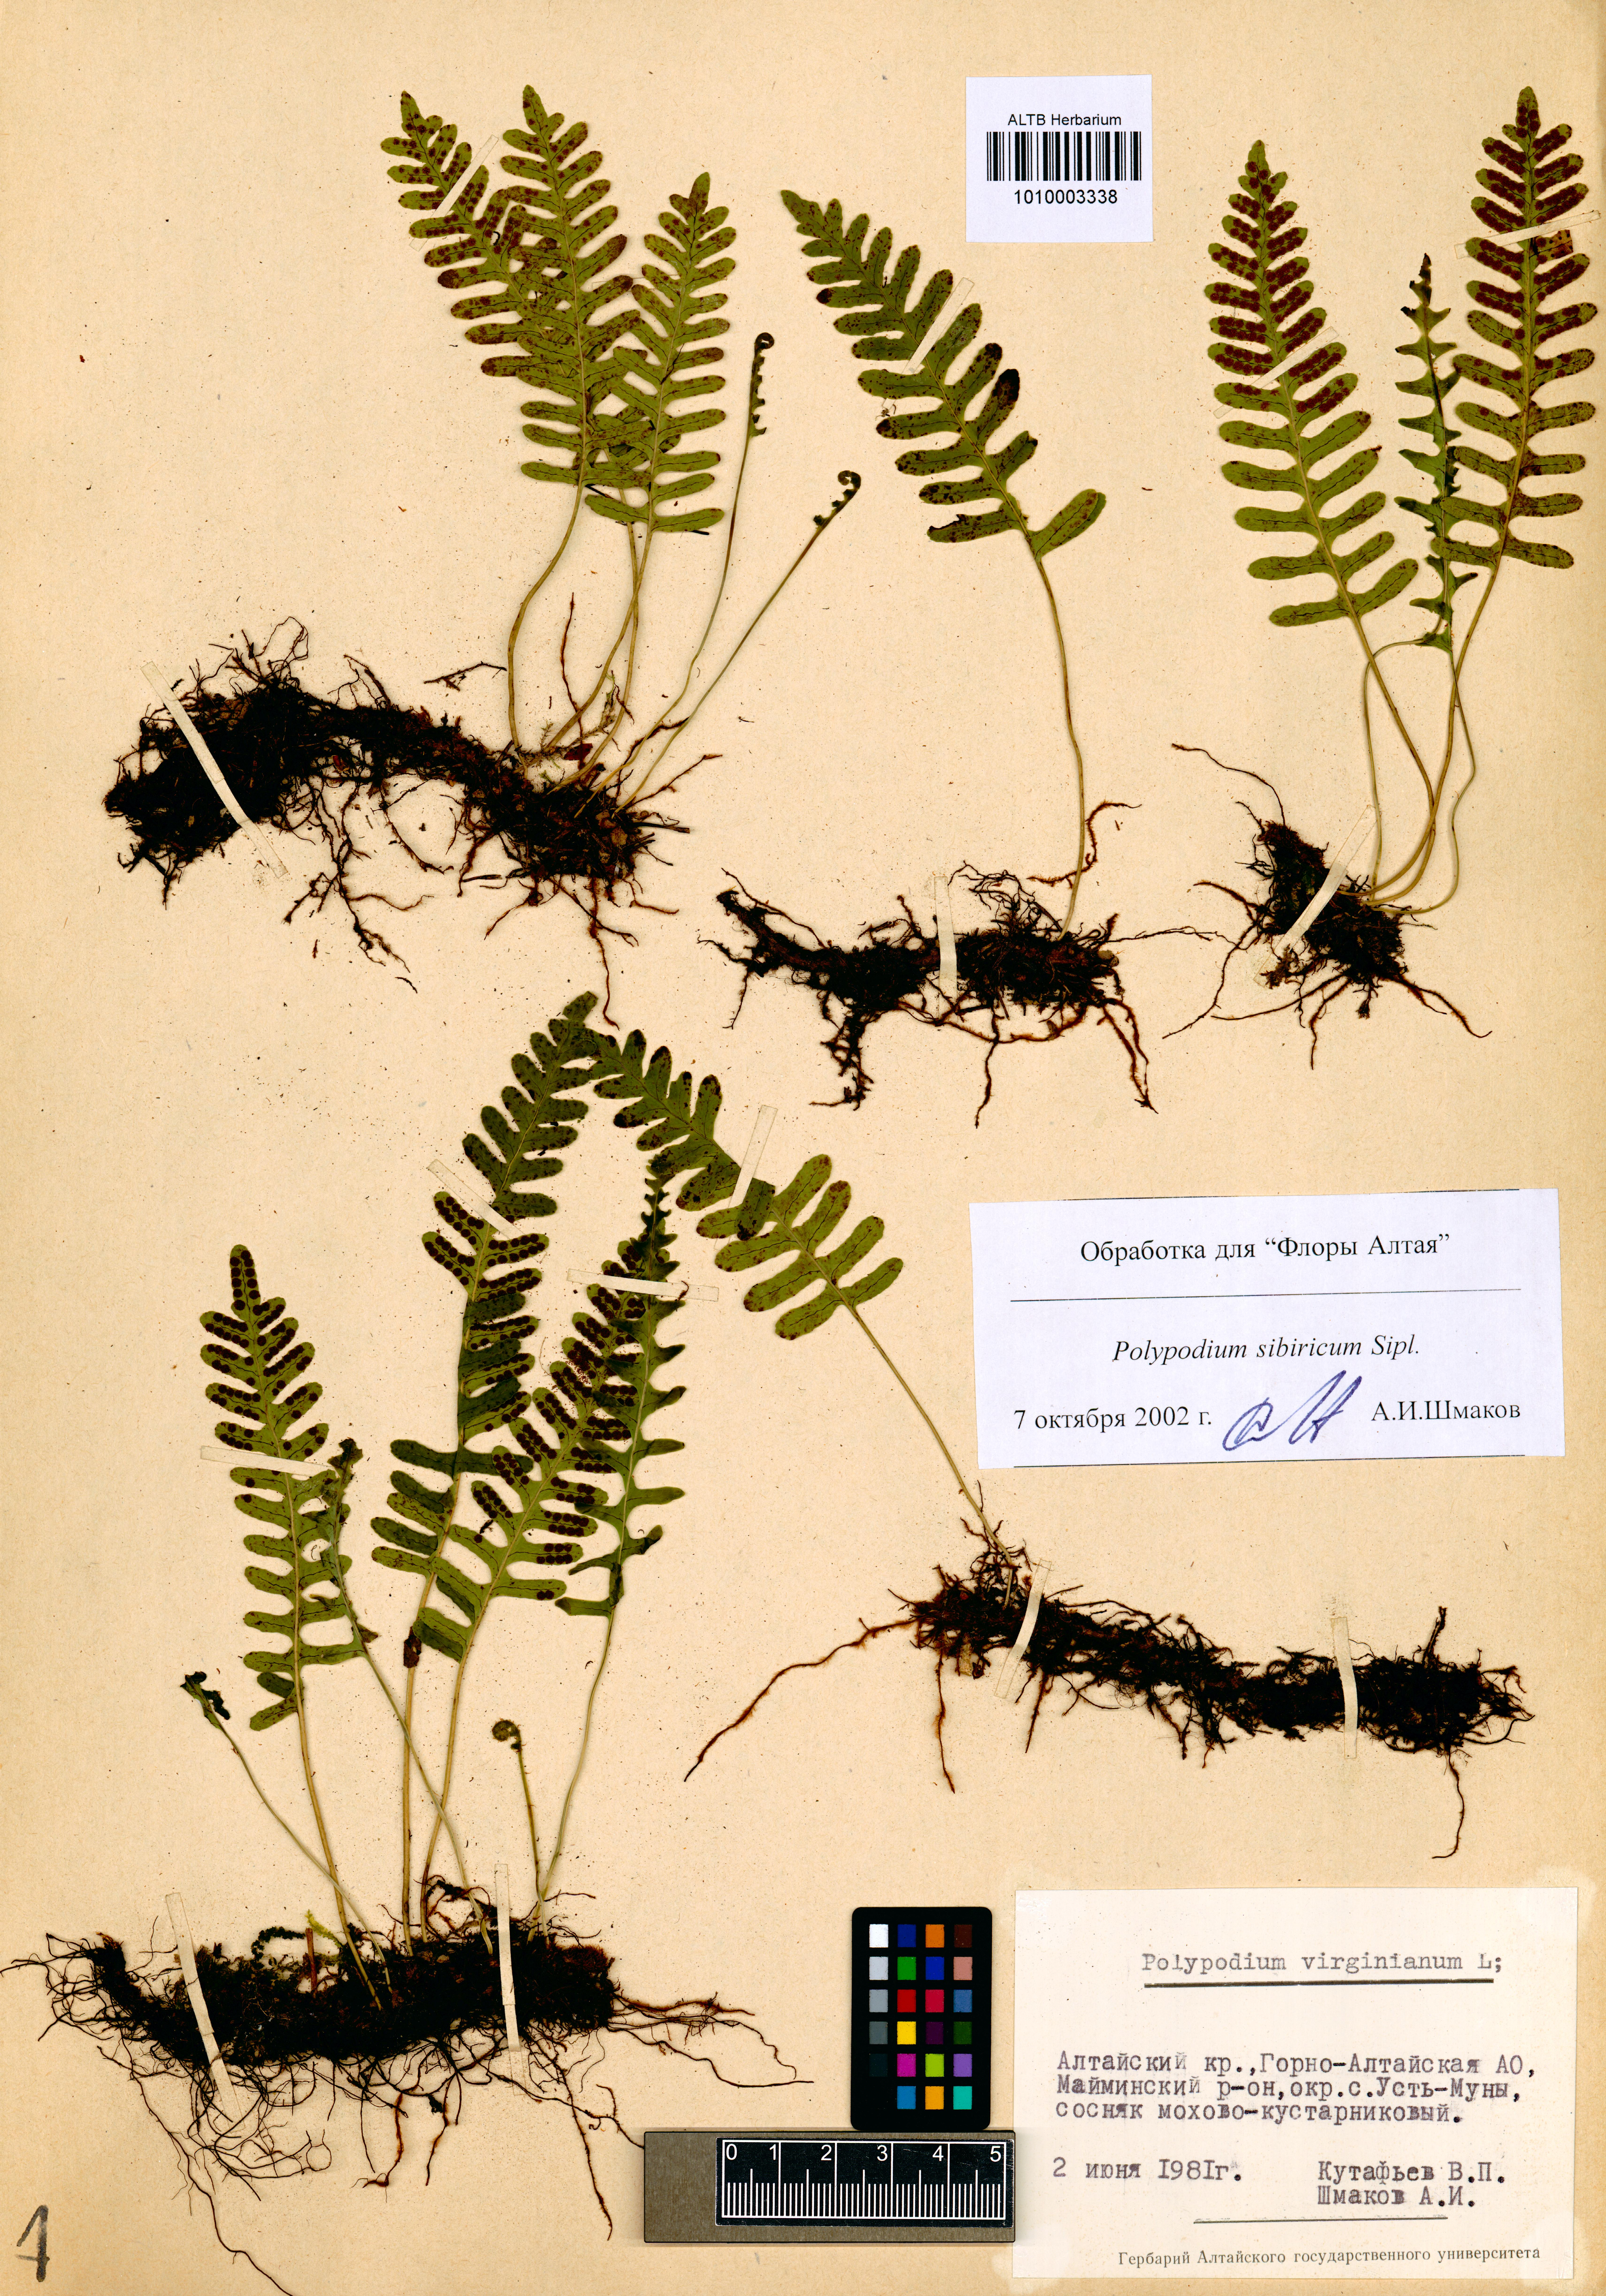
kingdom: Plantae
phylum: Tracheophyta
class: Polypodiopsida
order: Polypodiales
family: Polypodiaceae
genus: Polypodium
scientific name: Polypodium sibiricum
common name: Siberian polypody
